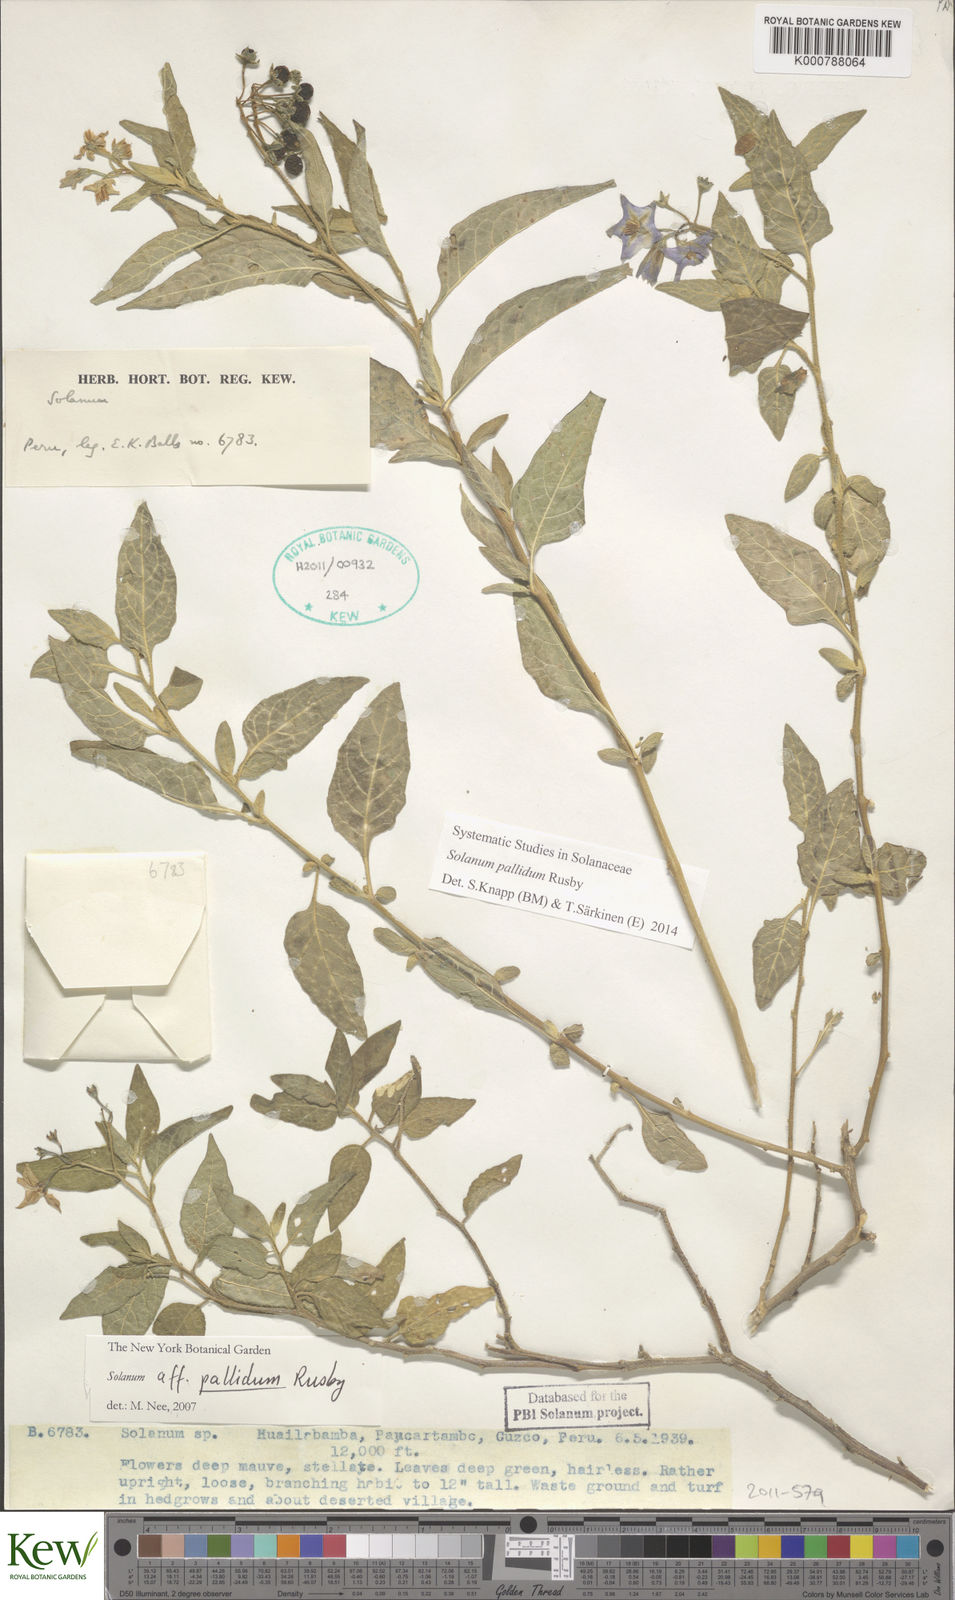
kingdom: Plantae
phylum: Tracheophyta
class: Magnoliopsida
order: Solanales
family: Solanaceae
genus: Solanum
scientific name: Solanum pallidum
